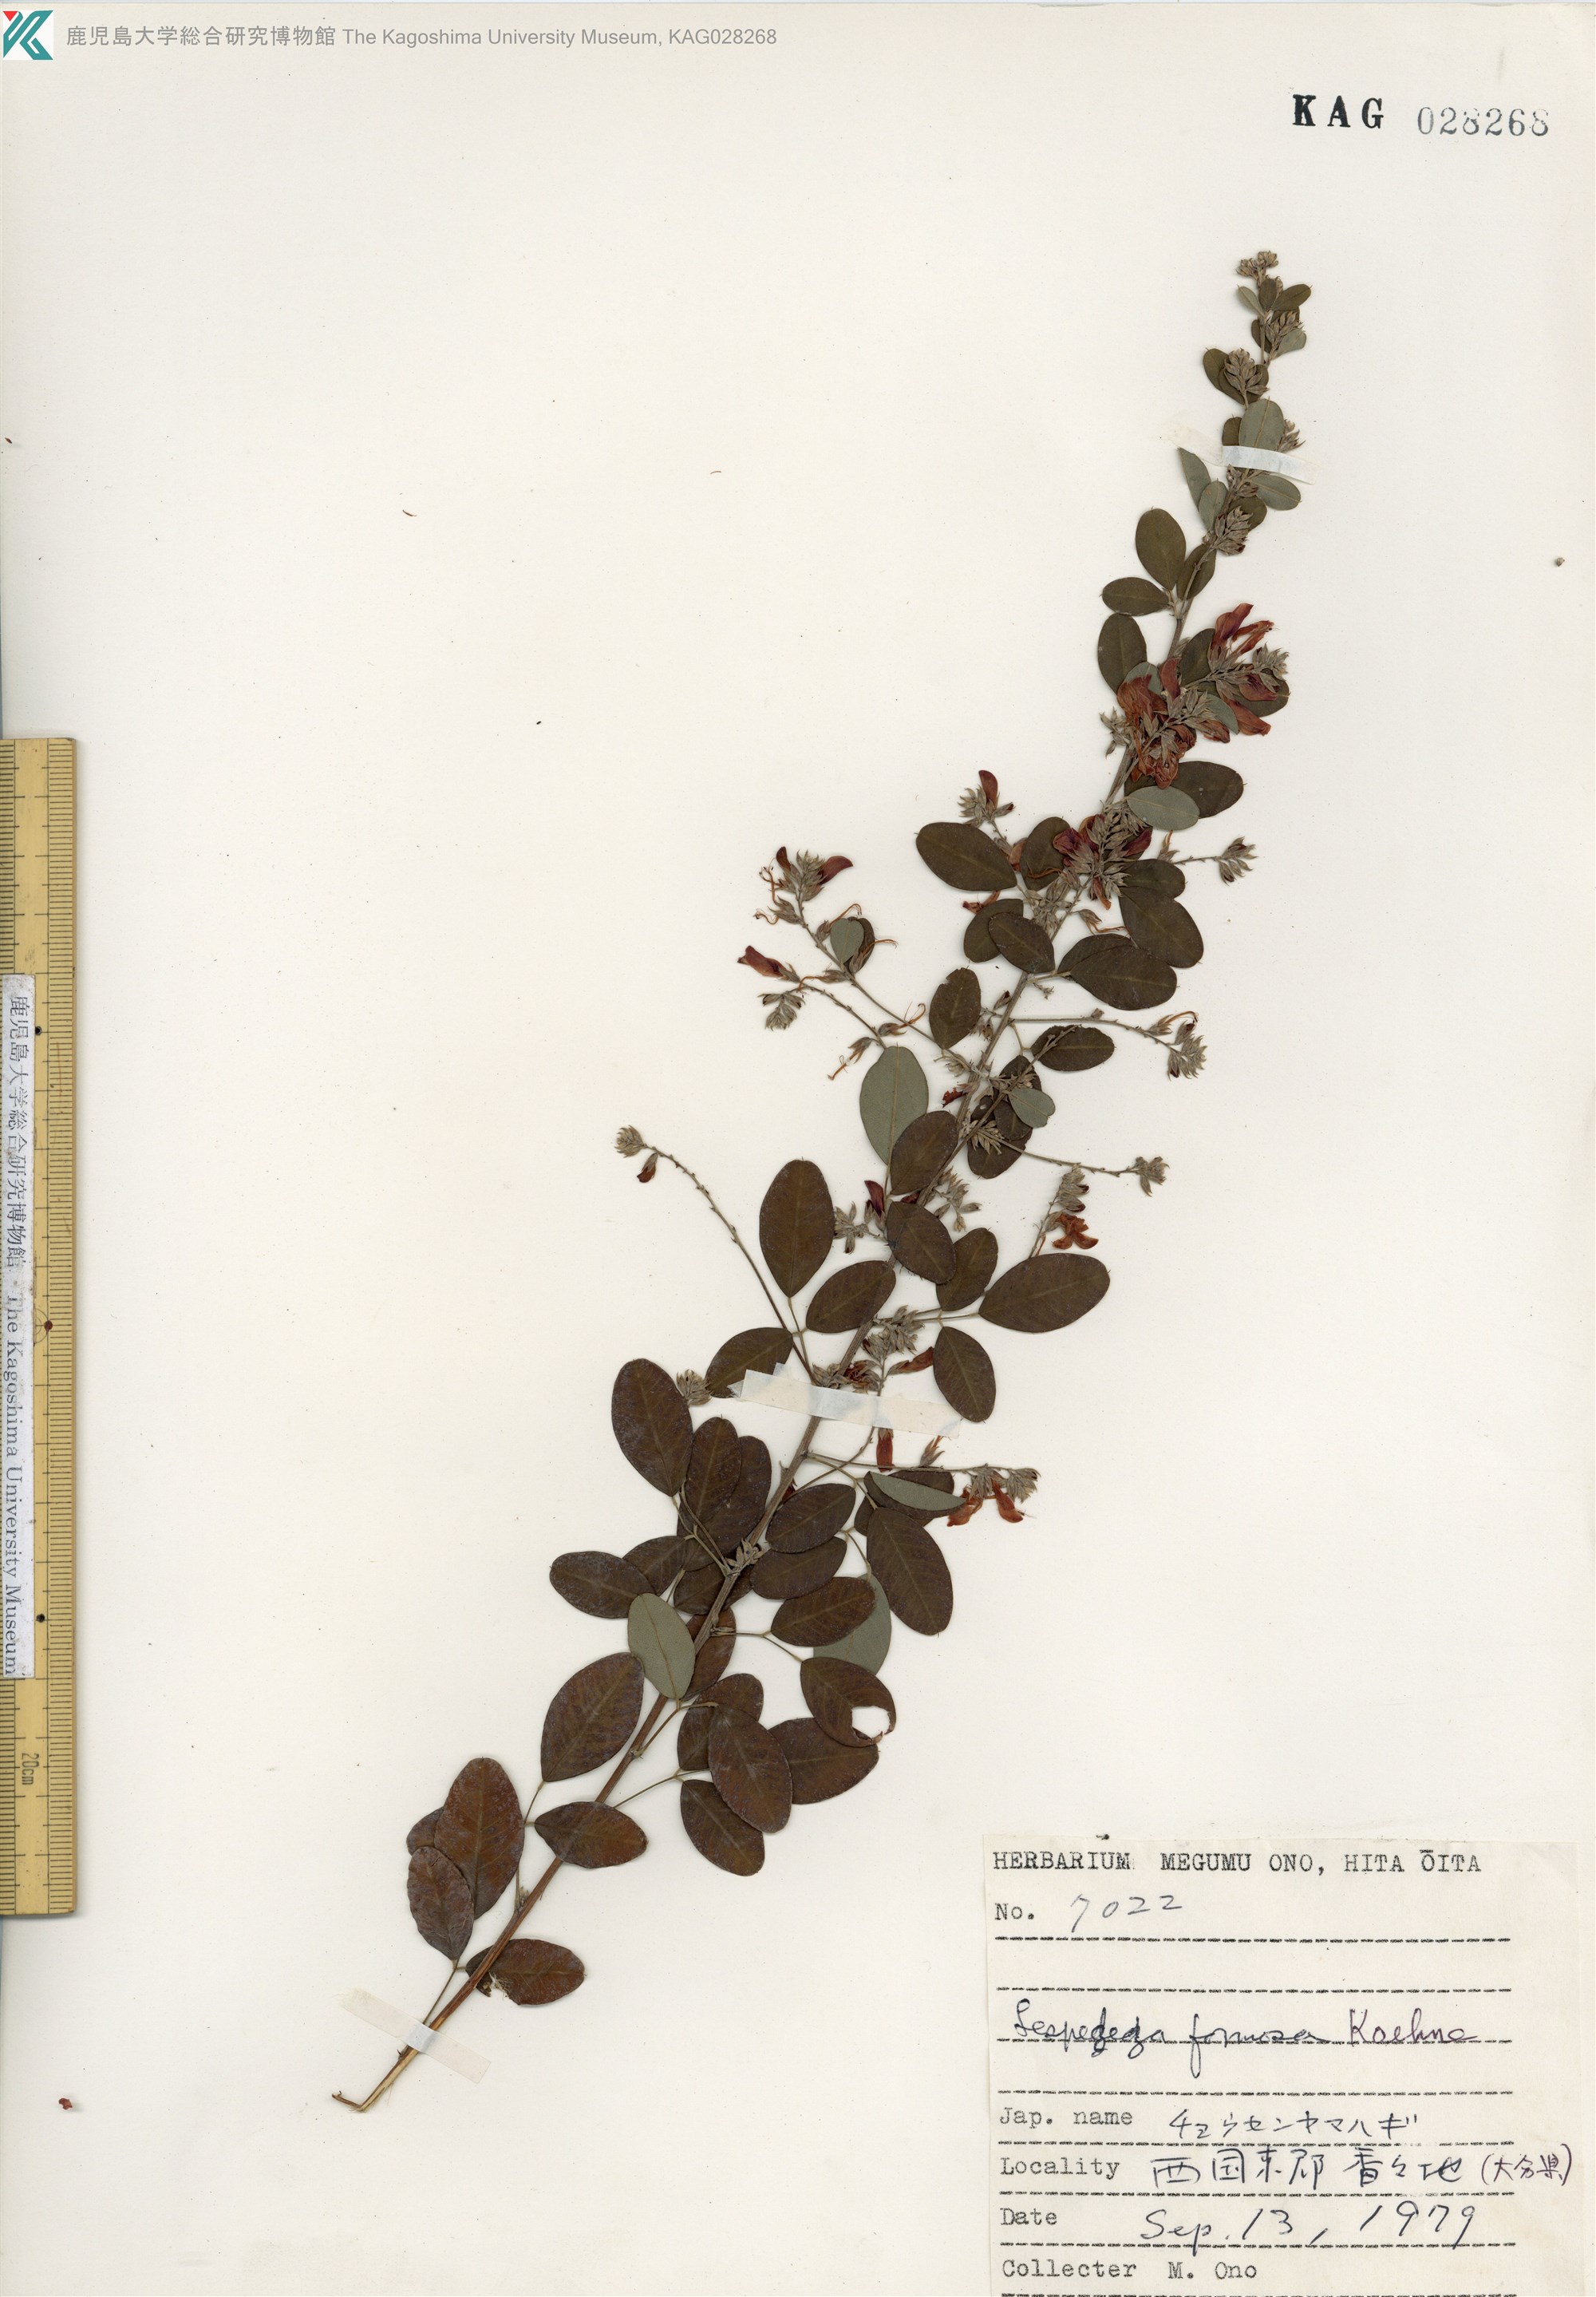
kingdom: Plantae
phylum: Tracheophyta
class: Magnoliopsida
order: Fabales
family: Fabaceae
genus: Lespedeza
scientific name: Lespedeza thunbergii
